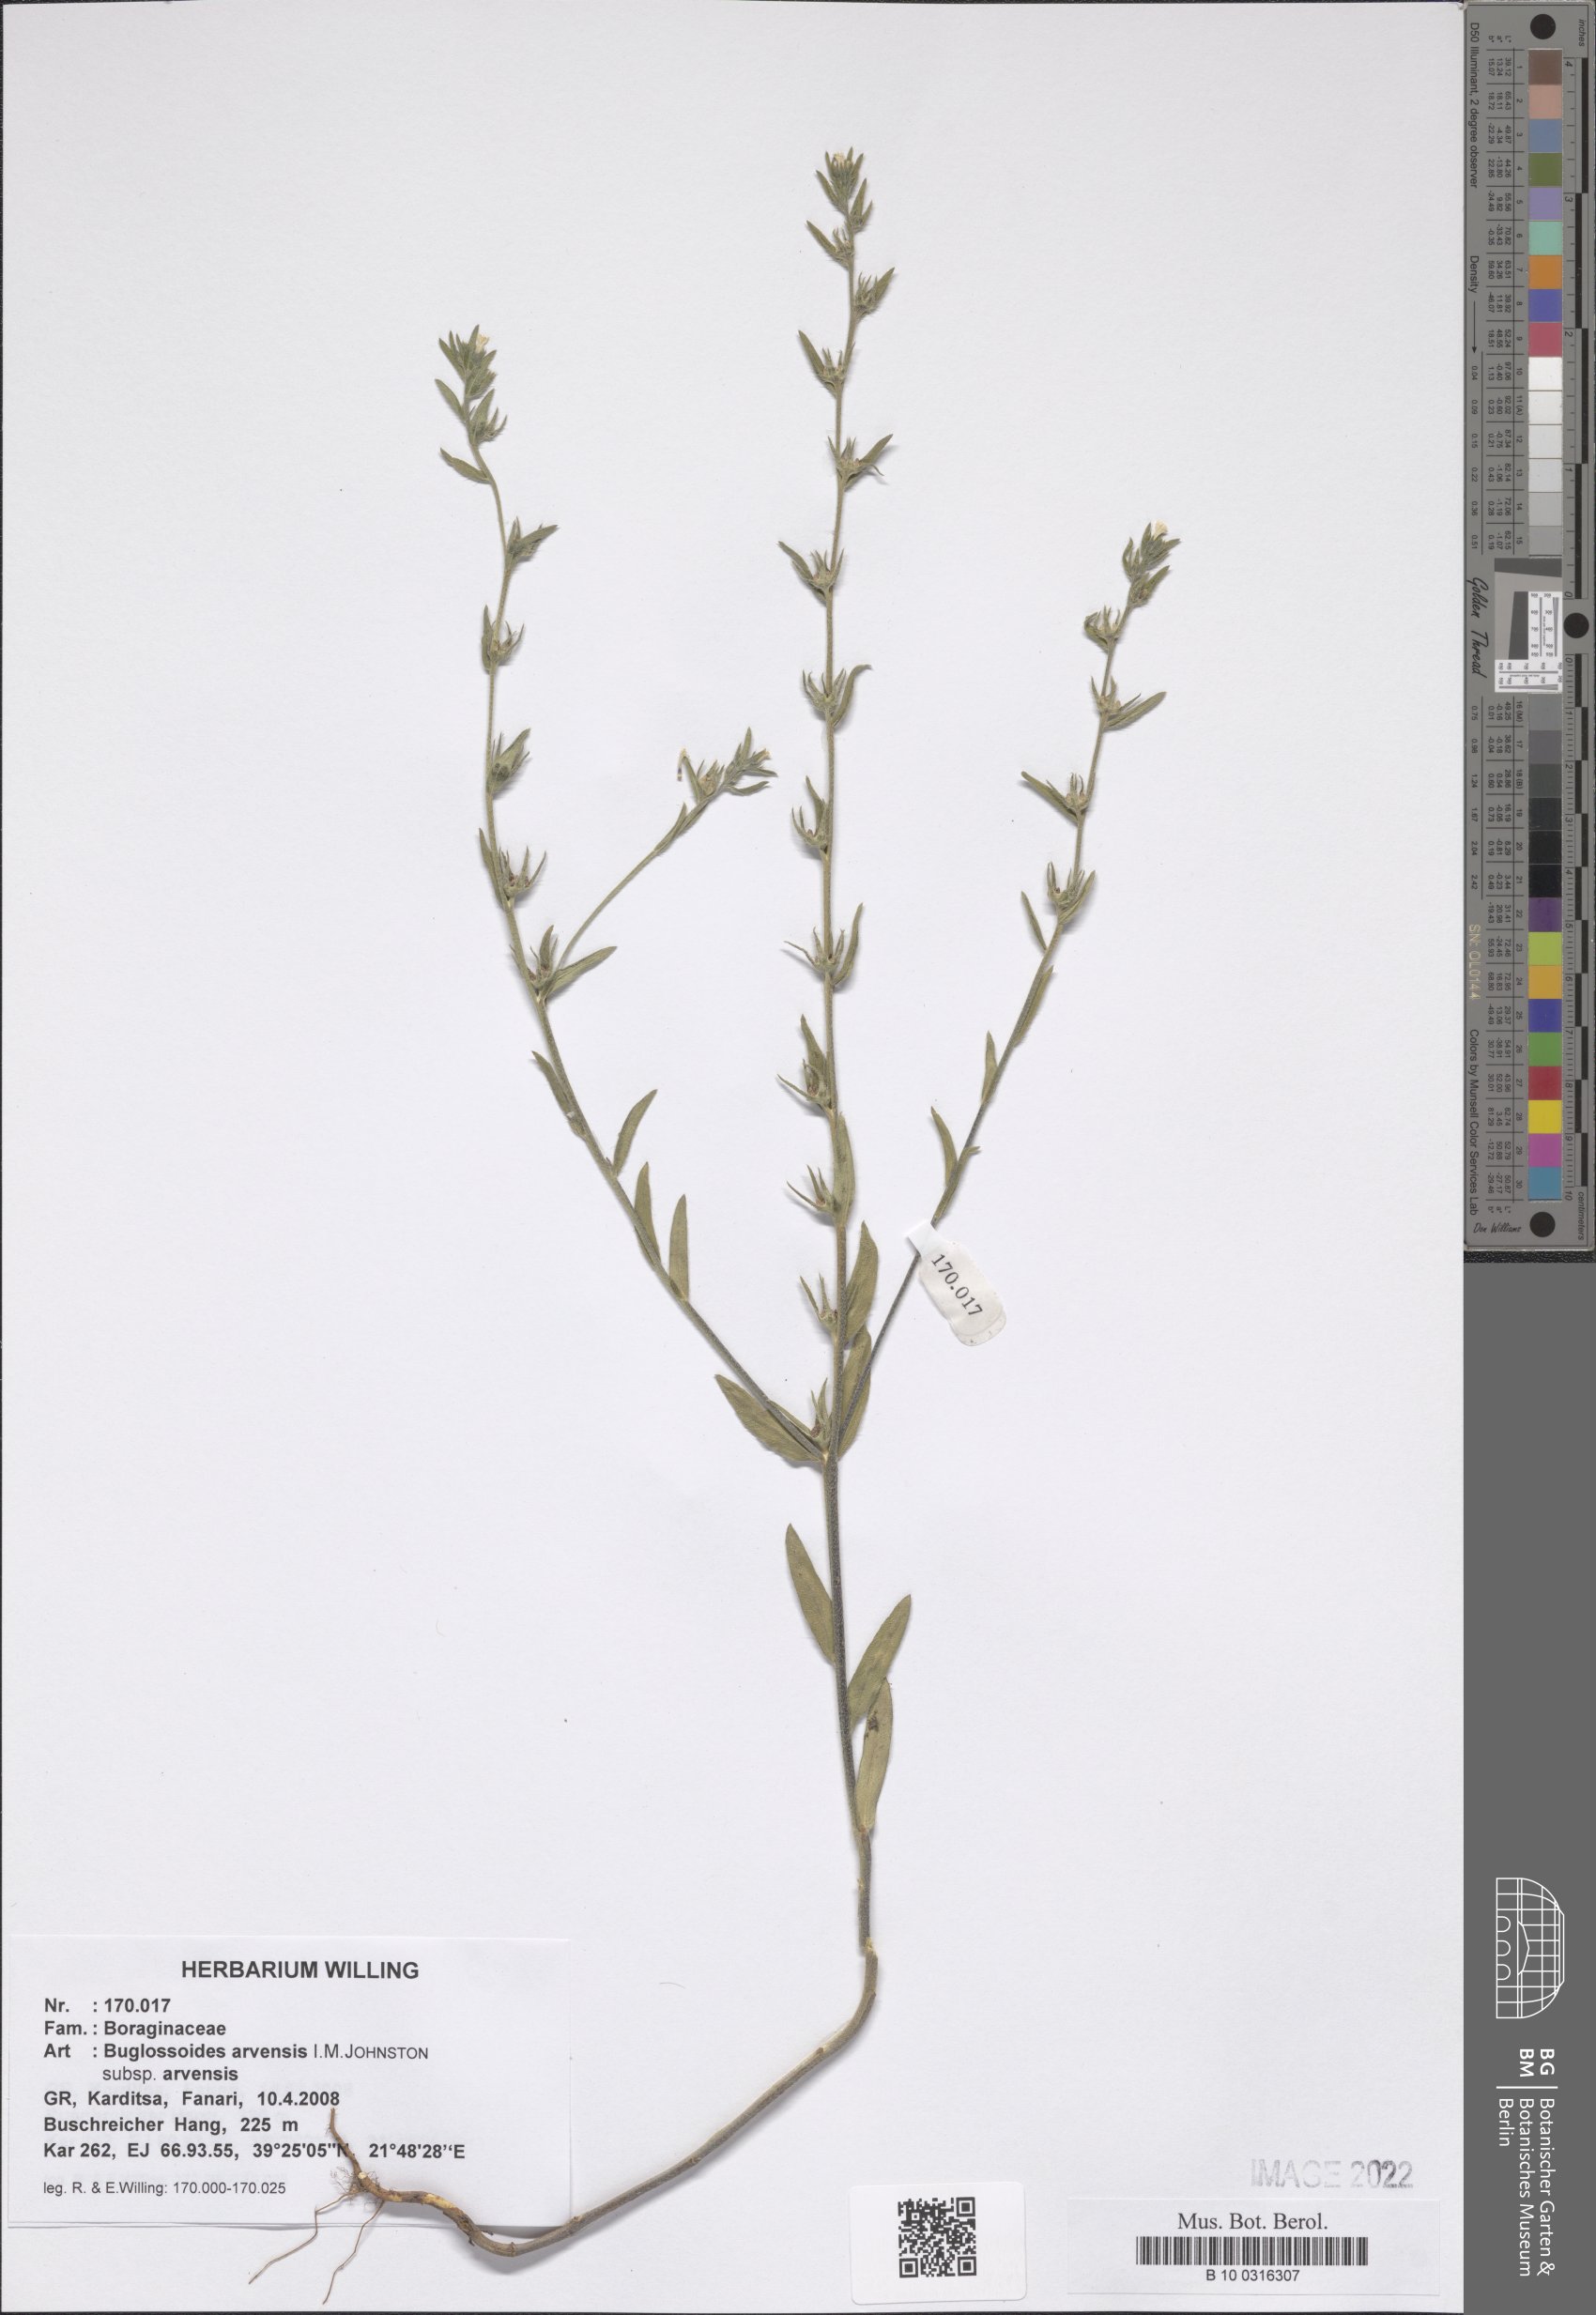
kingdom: Plantae
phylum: Tracheophyta
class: Magnoliopsida
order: Boraginales
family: Boraginaceae
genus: Buglossoides
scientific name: Buglossoides arvensis
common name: Corn gromwell
